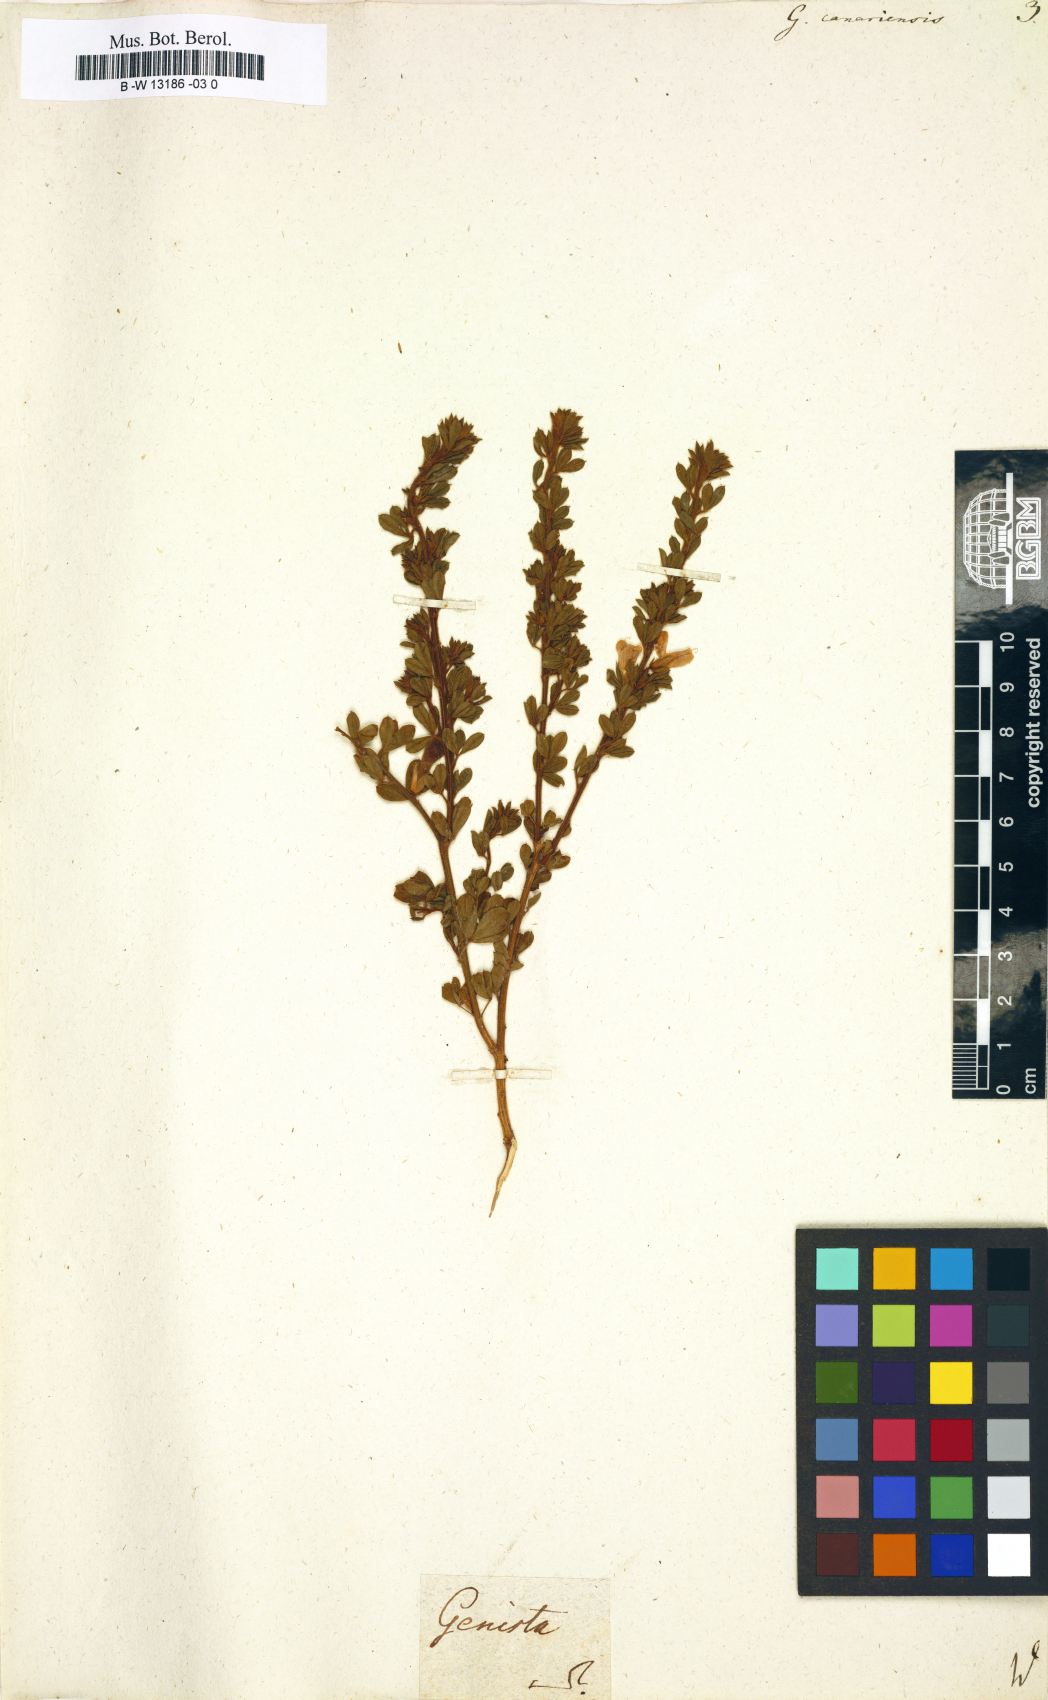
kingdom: Plantae
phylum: Tracheophyta
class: Magnoliopsida
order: Fabales
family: Fabaceae
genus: Genista
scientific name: Genista canariensis
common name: Canary broom
